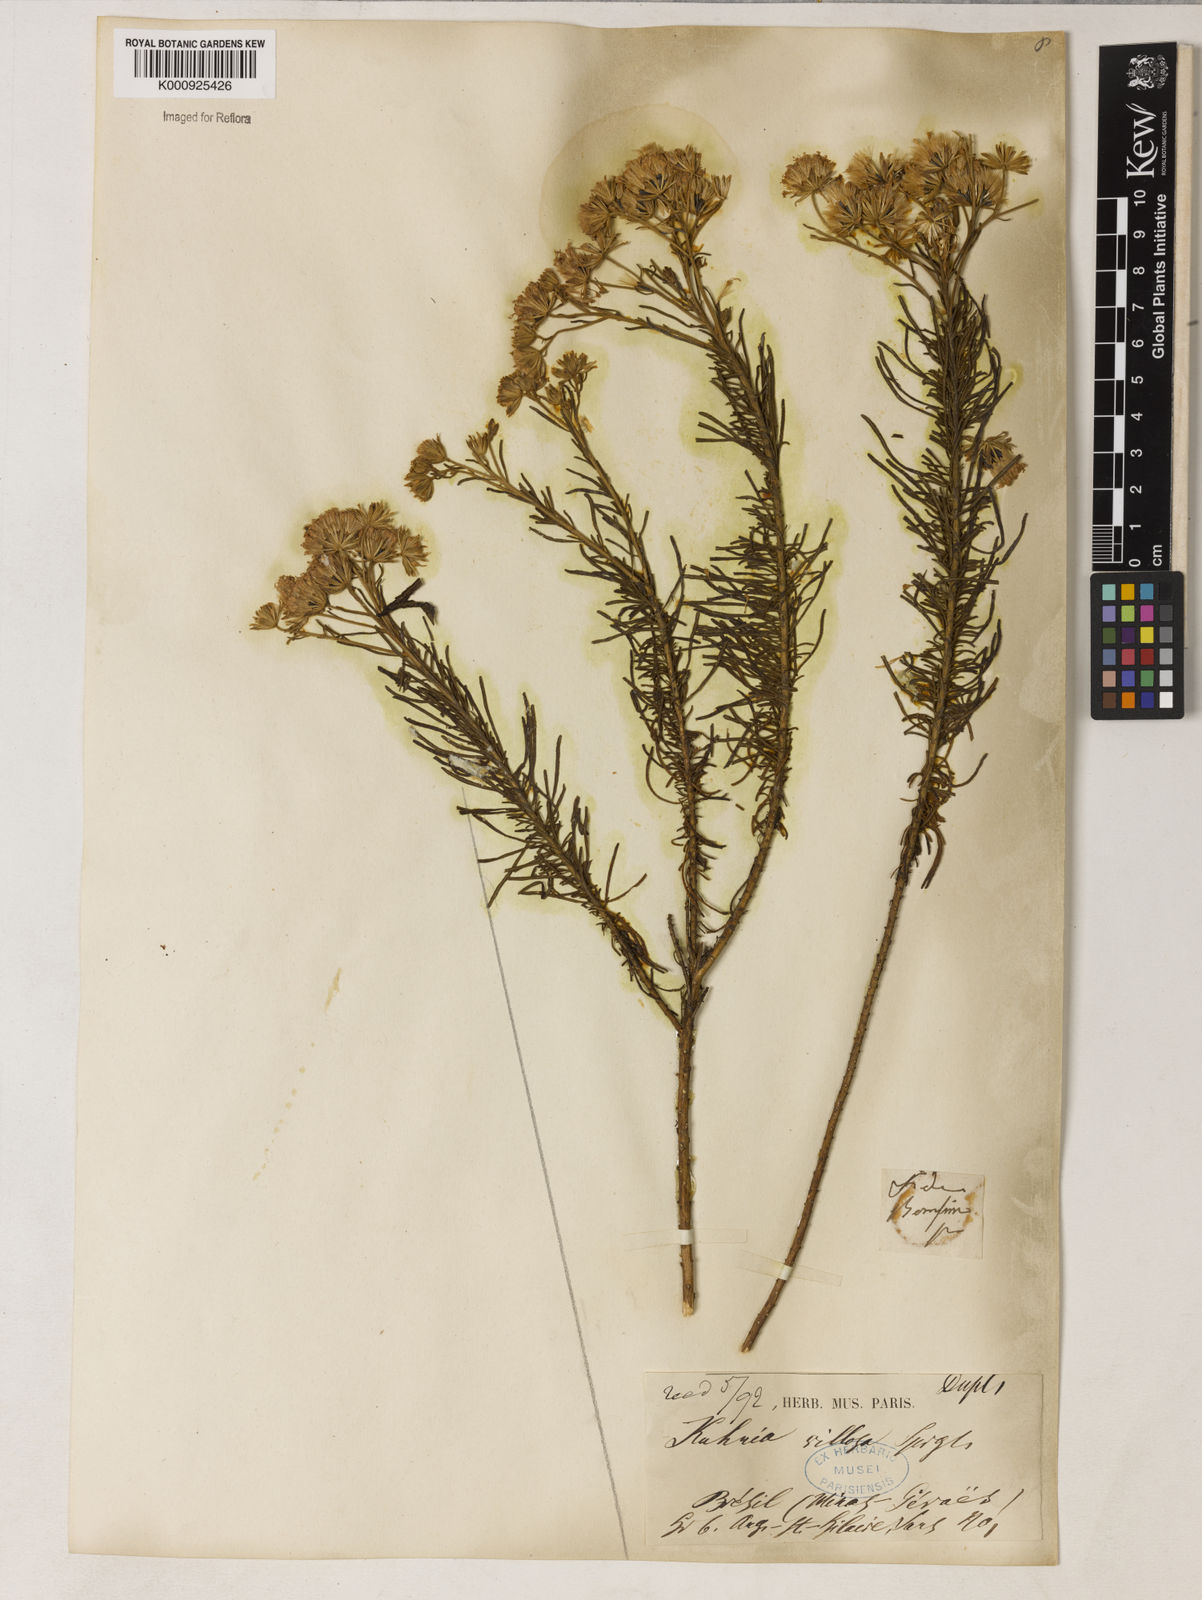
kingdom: Plantae
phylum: Tracheophyta
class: Magnoliopsida
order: Asterales
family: Asteraceae
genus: Trichogonia
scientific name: Trichogonia villosa
